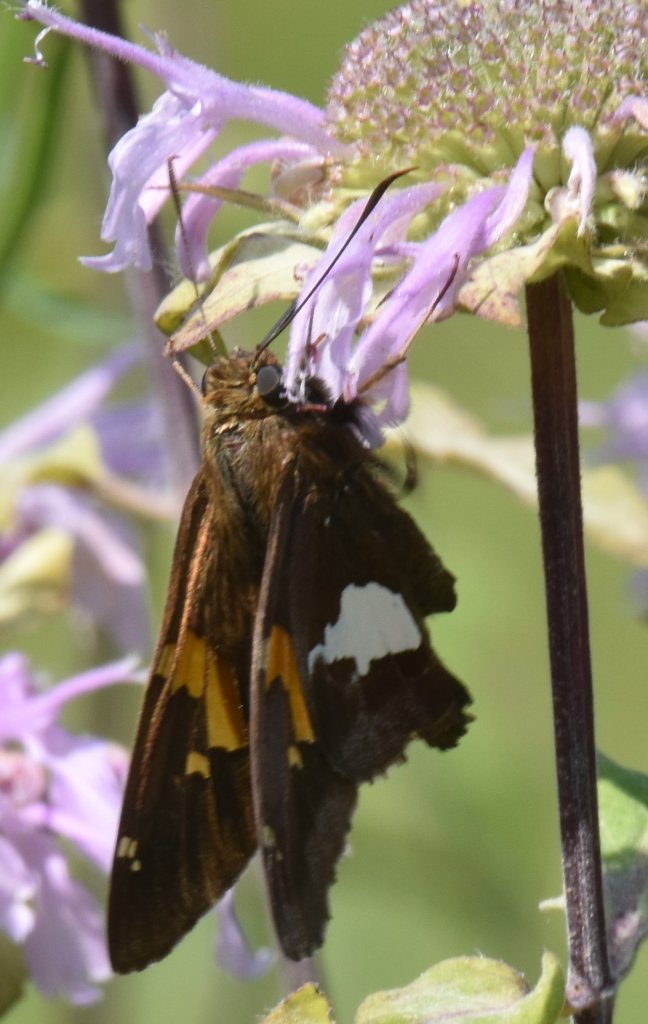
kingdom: Animalia
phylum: Arthropoda
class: Insecta
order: Lepidoptera
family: Hesperiidae
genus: Epargyreus
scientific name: Epargyreus clarus
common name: Silver-spotted Skipper
